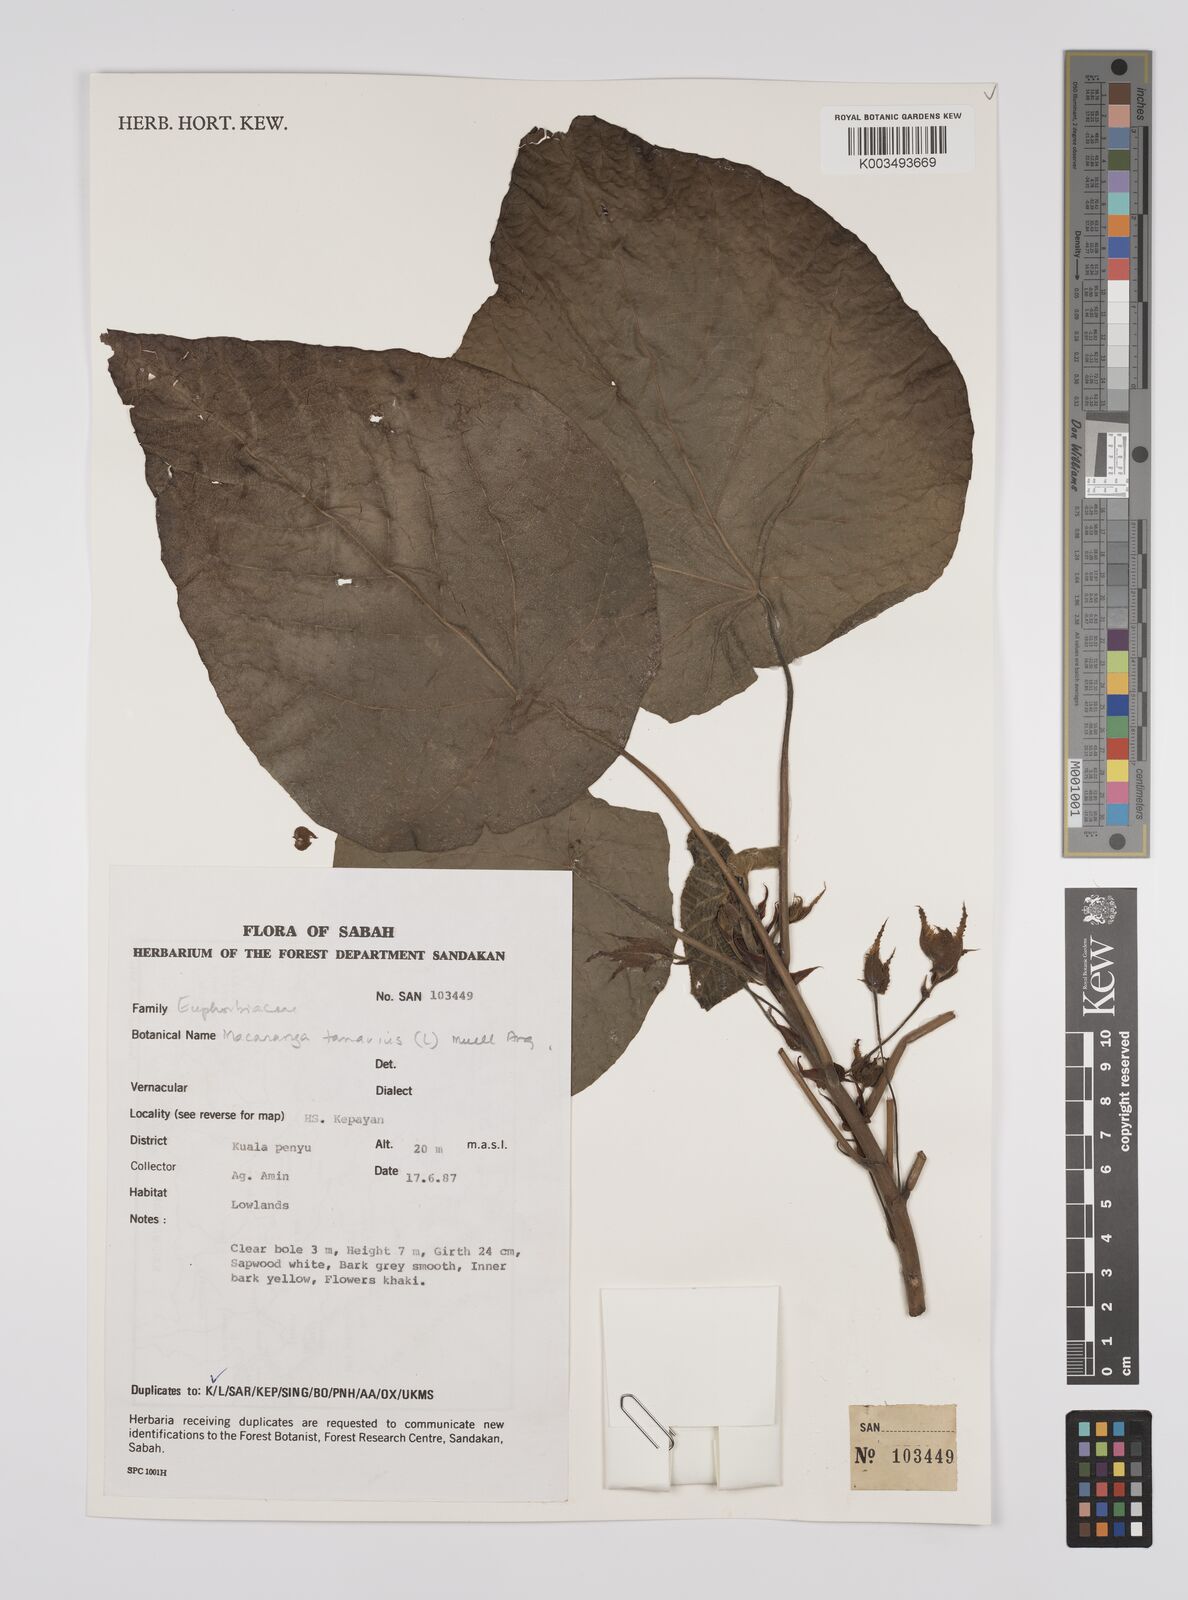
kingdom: Plantae
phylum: Tracheophyta
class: Magnoliopsida
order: Malpighiales
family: Euphorbiaceae
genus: Macaranga
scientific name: Macaranga tanarius
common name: Parasol leaf tree
